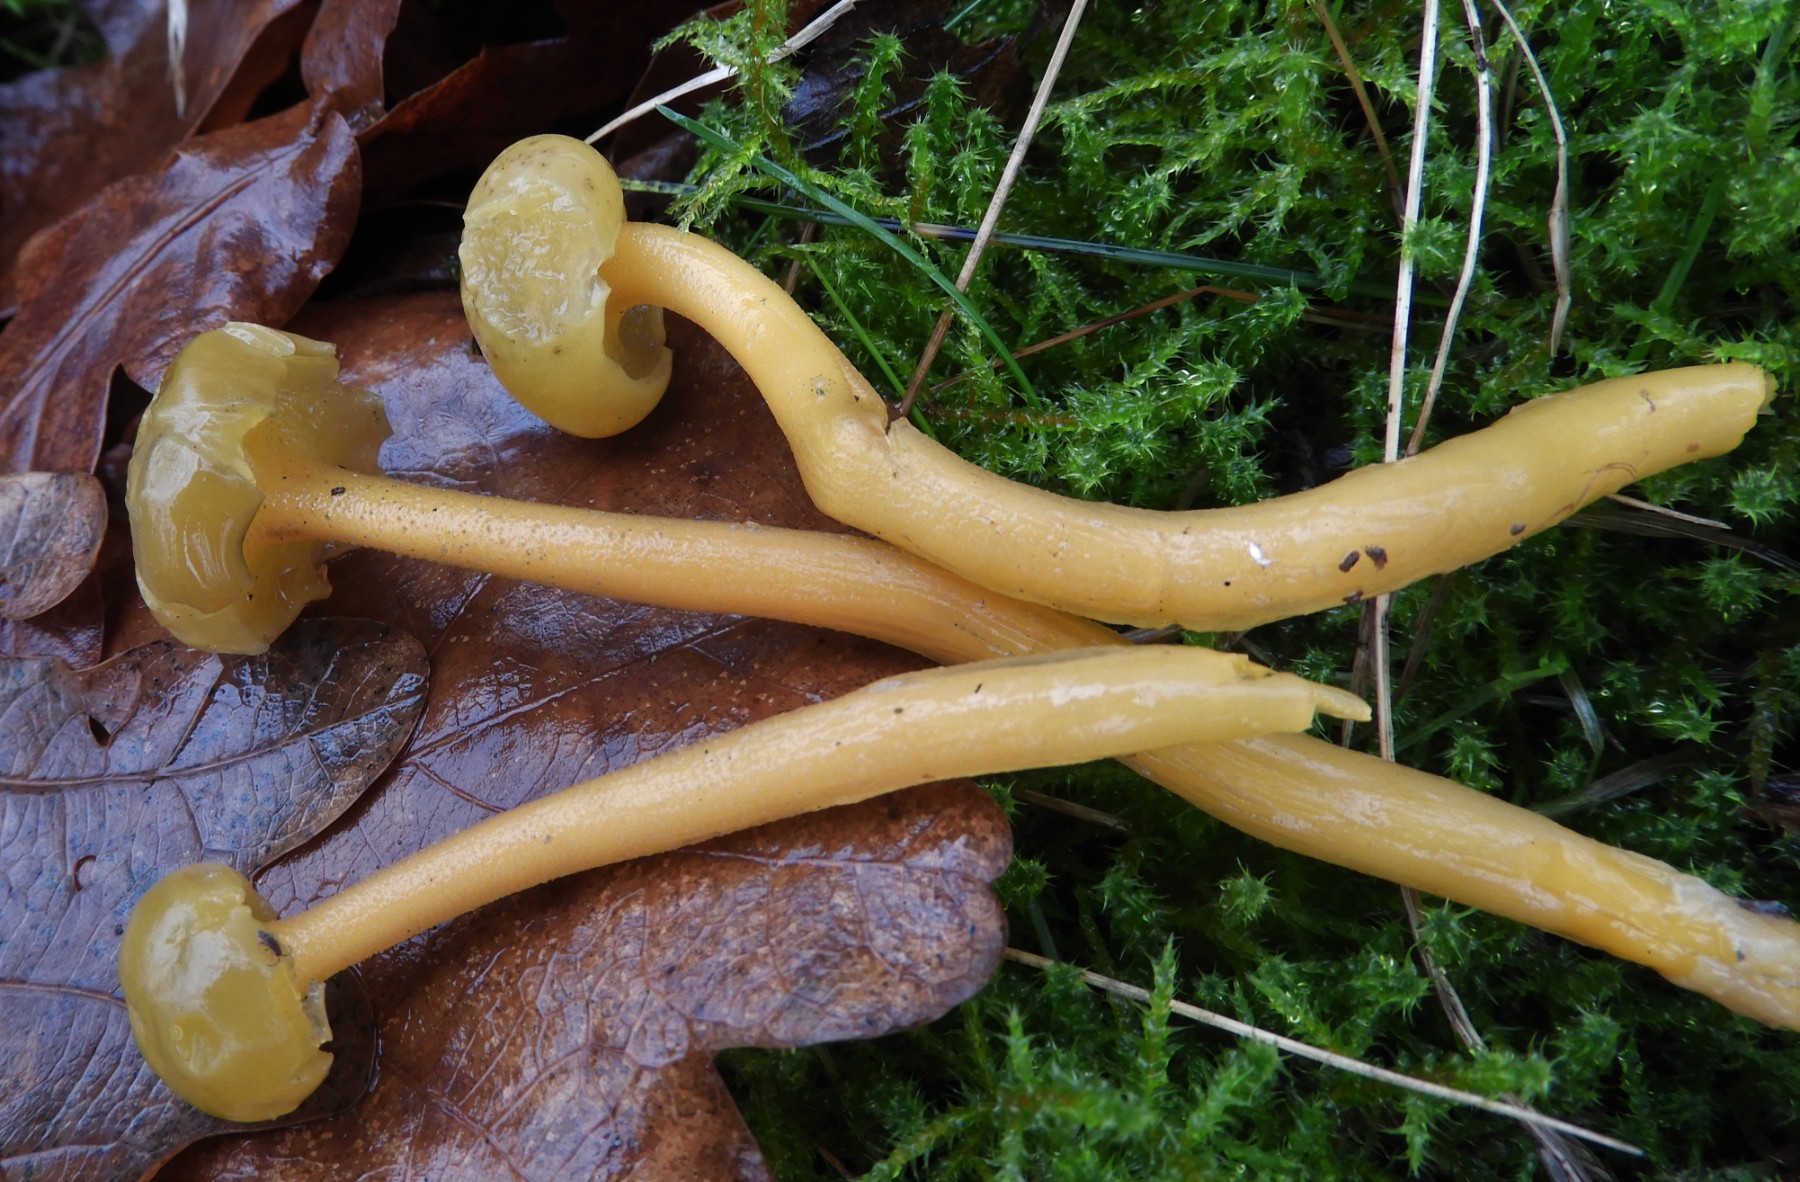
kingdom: Fungi
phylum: Ascomycota
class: Leotiomycetes
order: Leotiales
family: Leotiaceae
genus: Leotia
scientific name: Leotia lubrica
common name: ravsvamp
